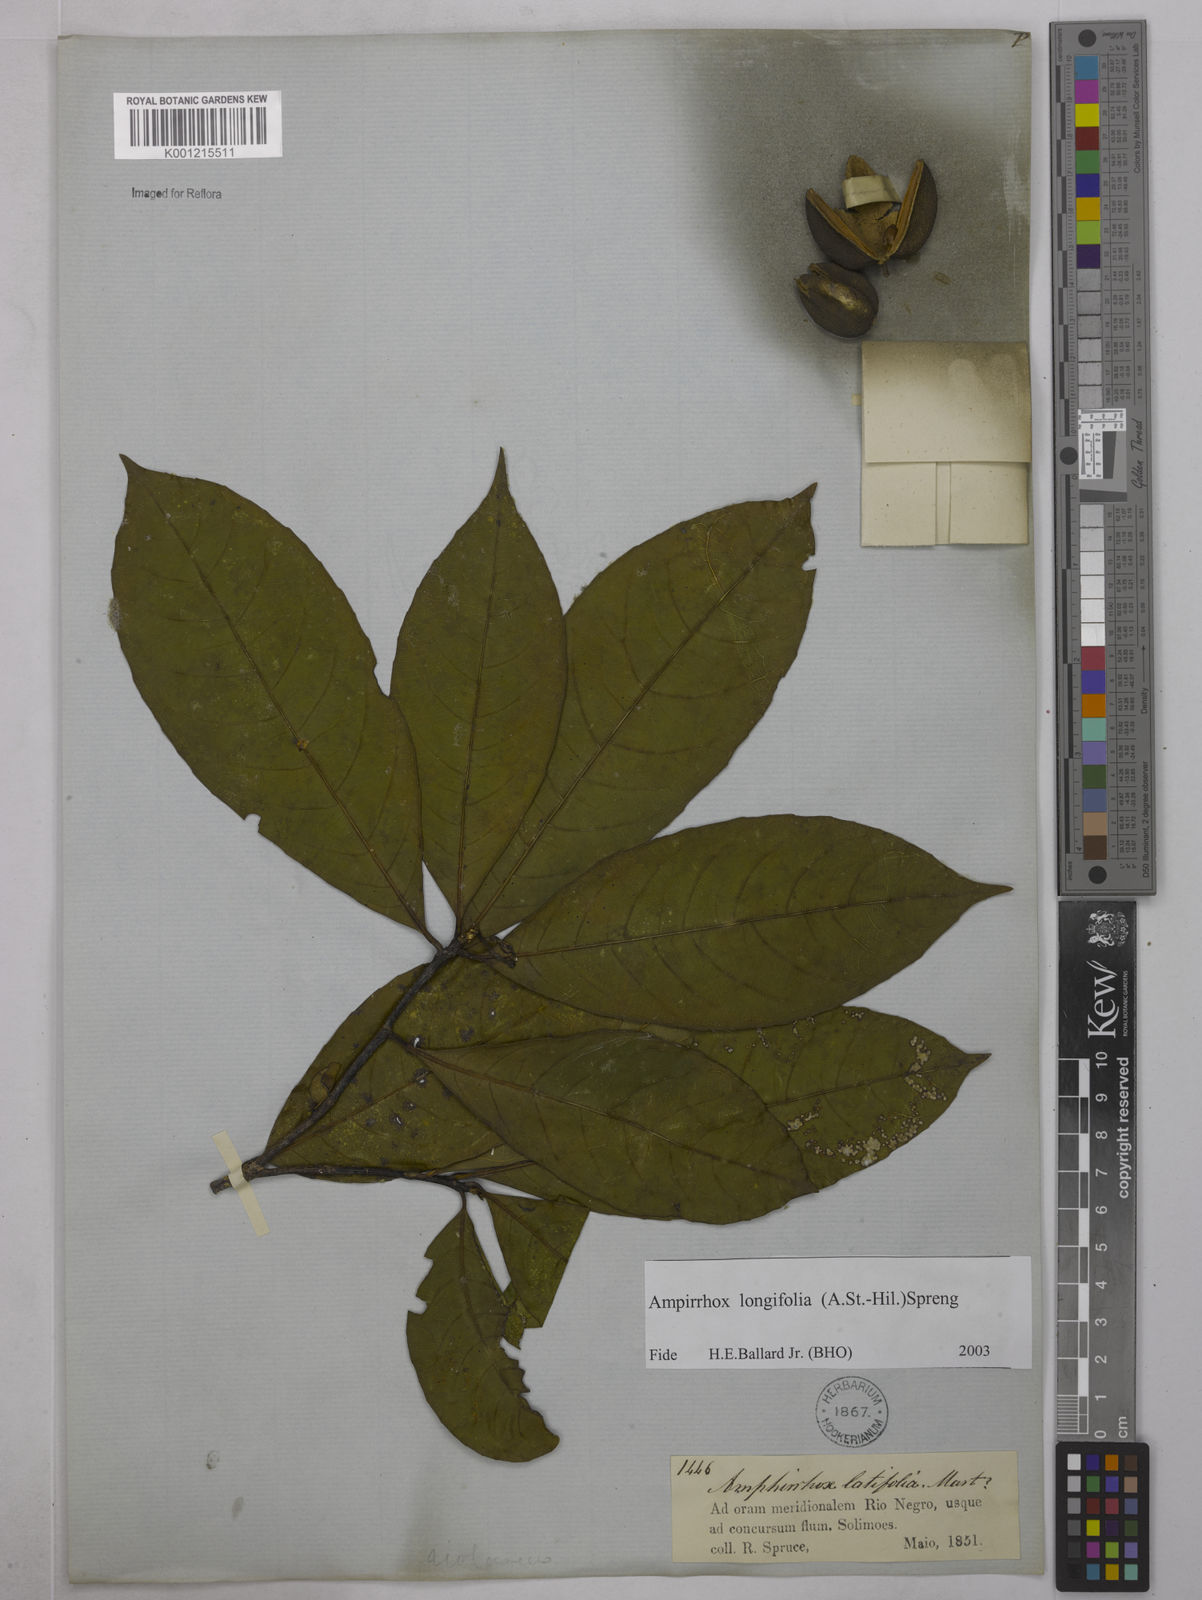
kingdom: Plantae
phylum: Tracheophyta
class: Magnoliopsida
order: Malpighiales
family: Violaceae
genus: Amphirrhox
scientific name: Amphirrhox longifolia
